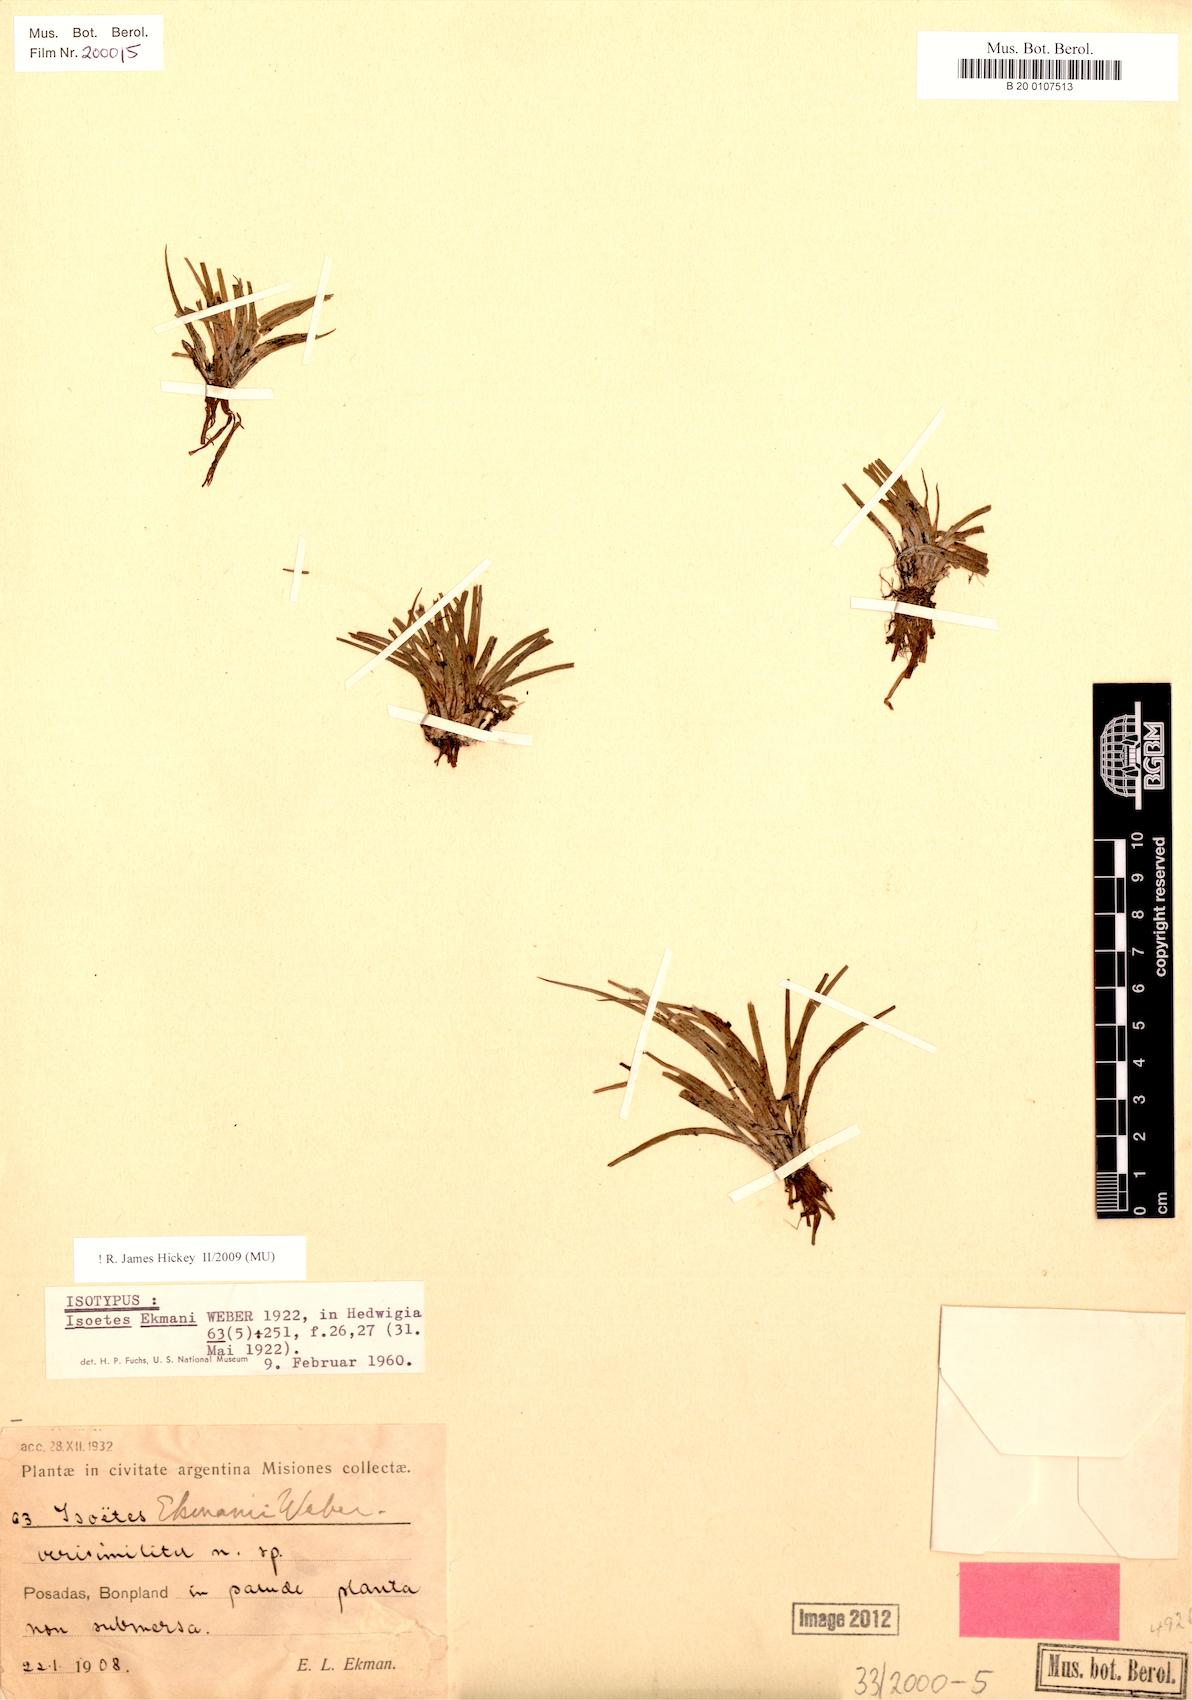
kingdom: Plantae
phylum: Tracheophyta
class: Lycopodiopsida
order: Isoetales
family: Isoetaceae
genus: Isoetes
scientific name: Isoetes ekmanii
